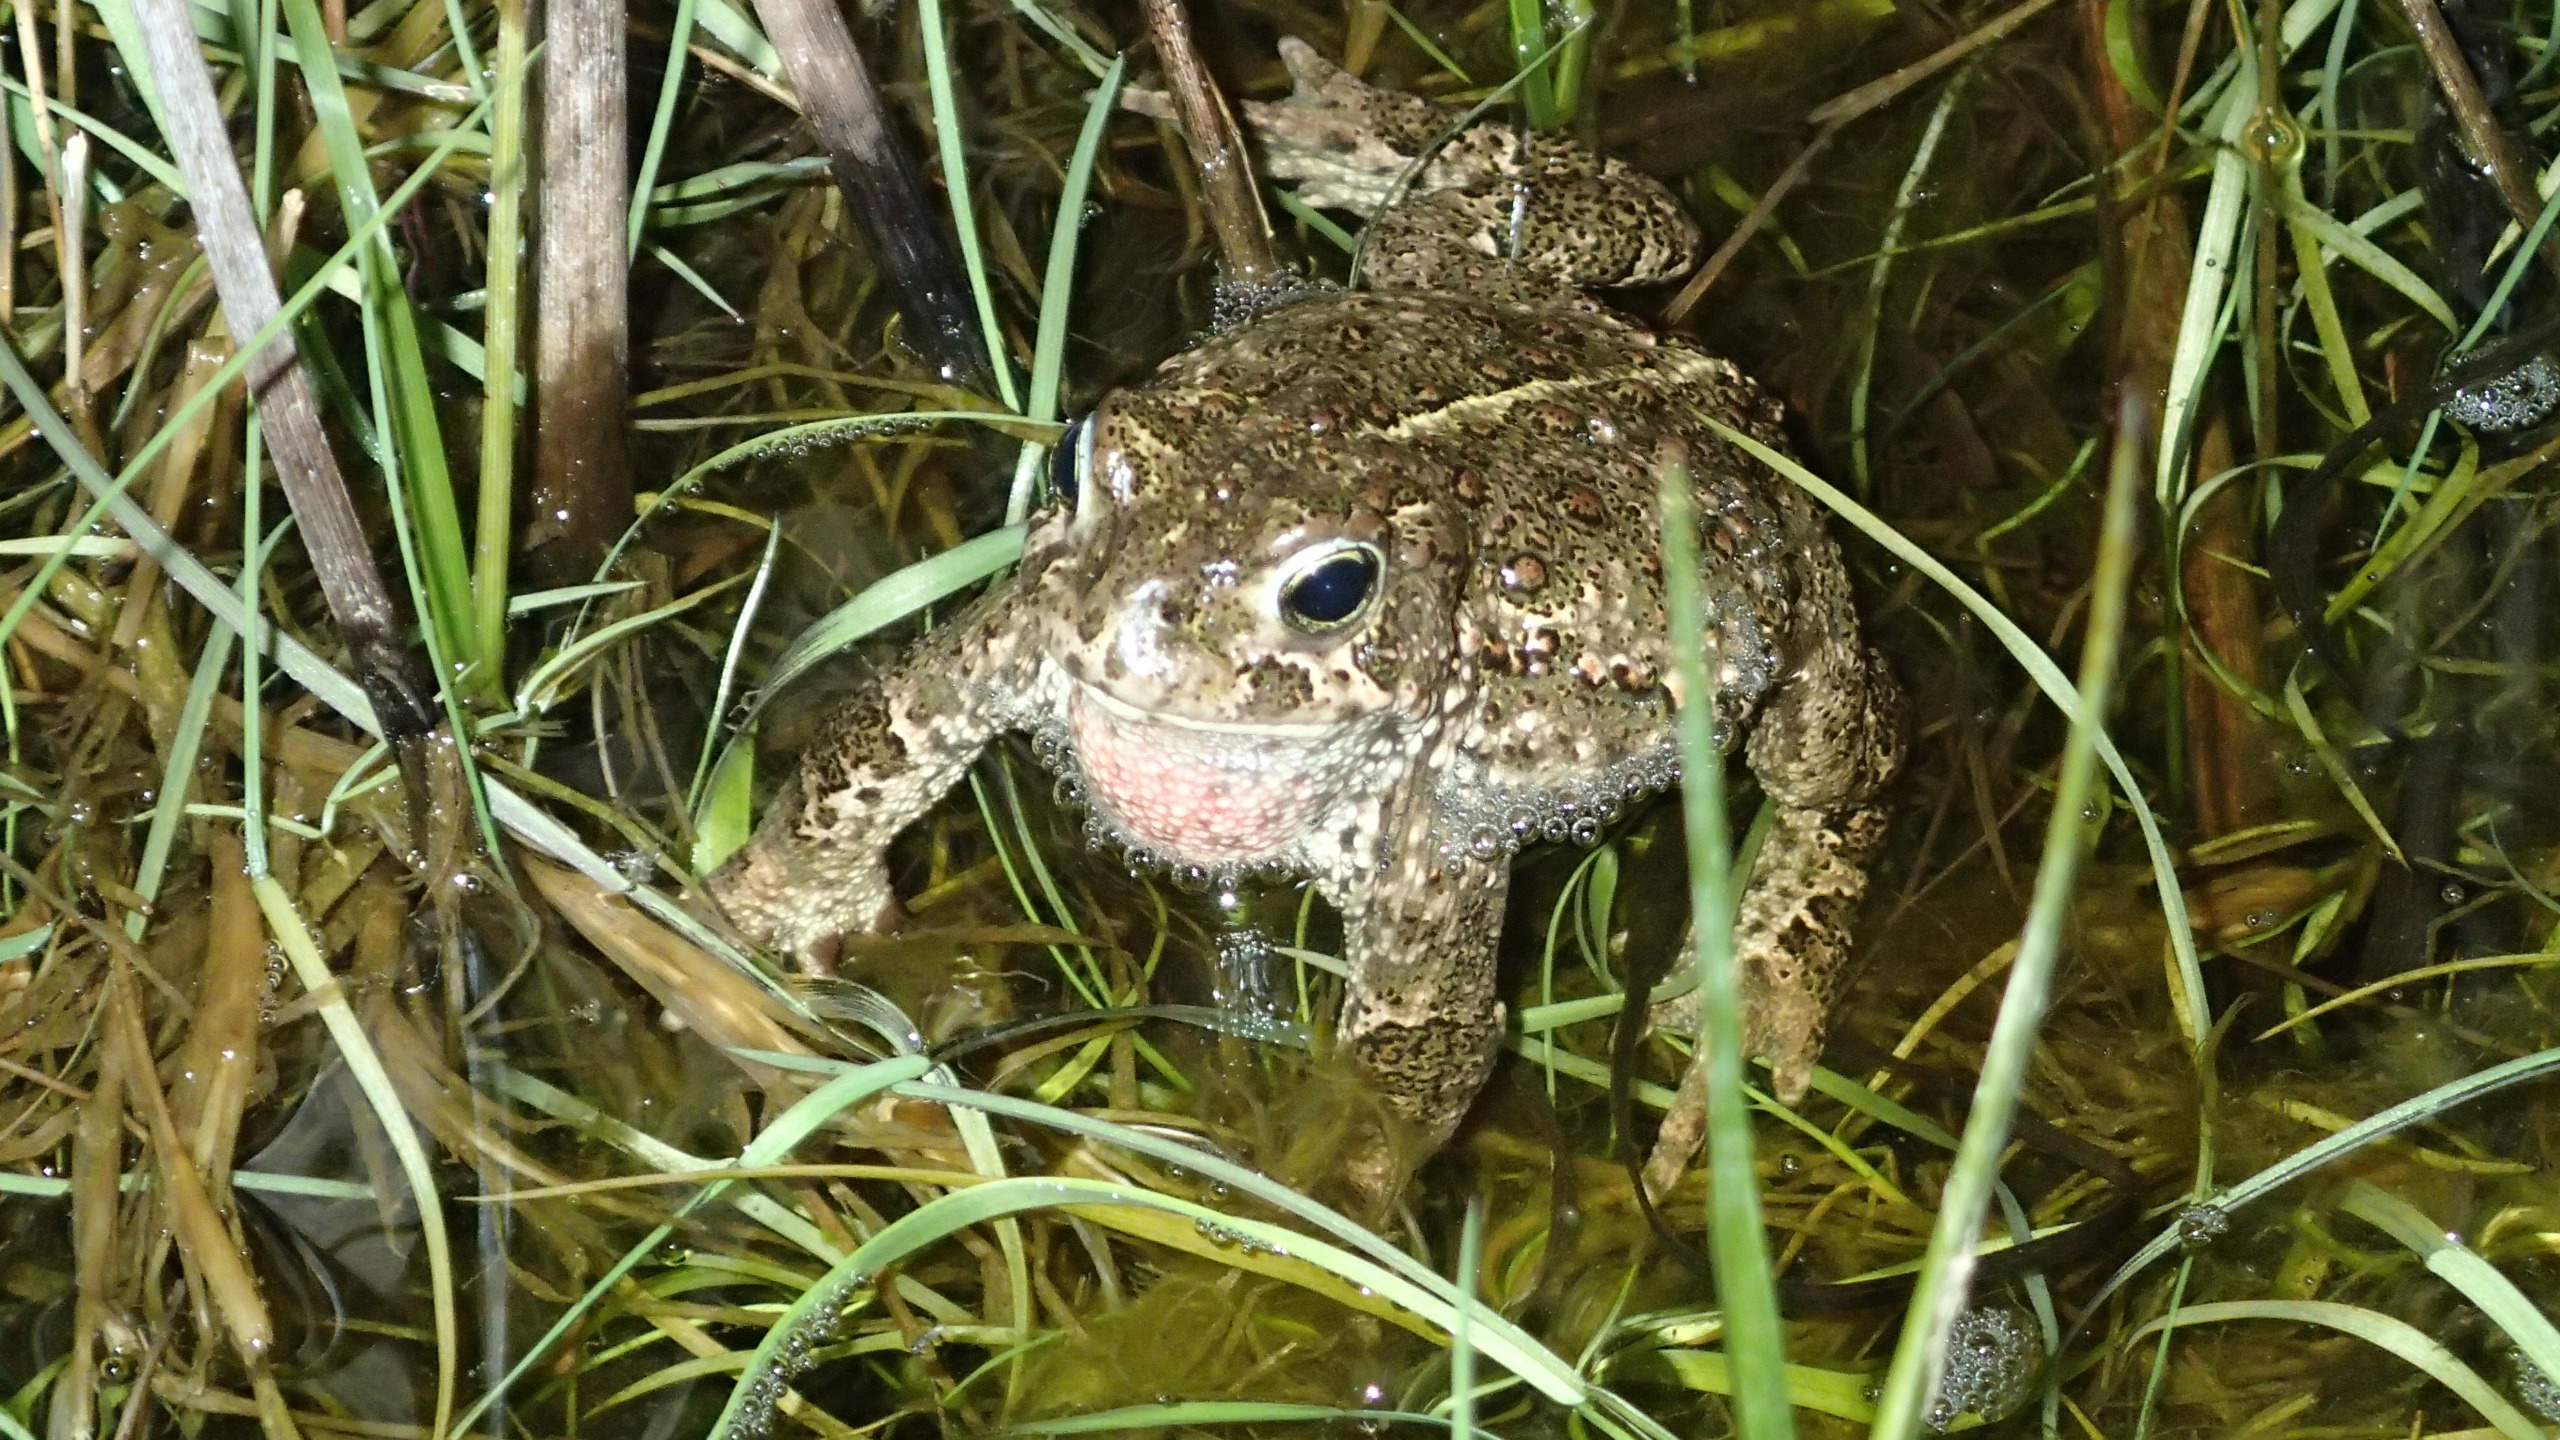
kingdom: Animalia
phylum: Chordata
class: Amphibia
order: Anura
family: Bufonidae
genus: Epidalea
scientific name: Epidalea calamita
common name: Strandtudse
